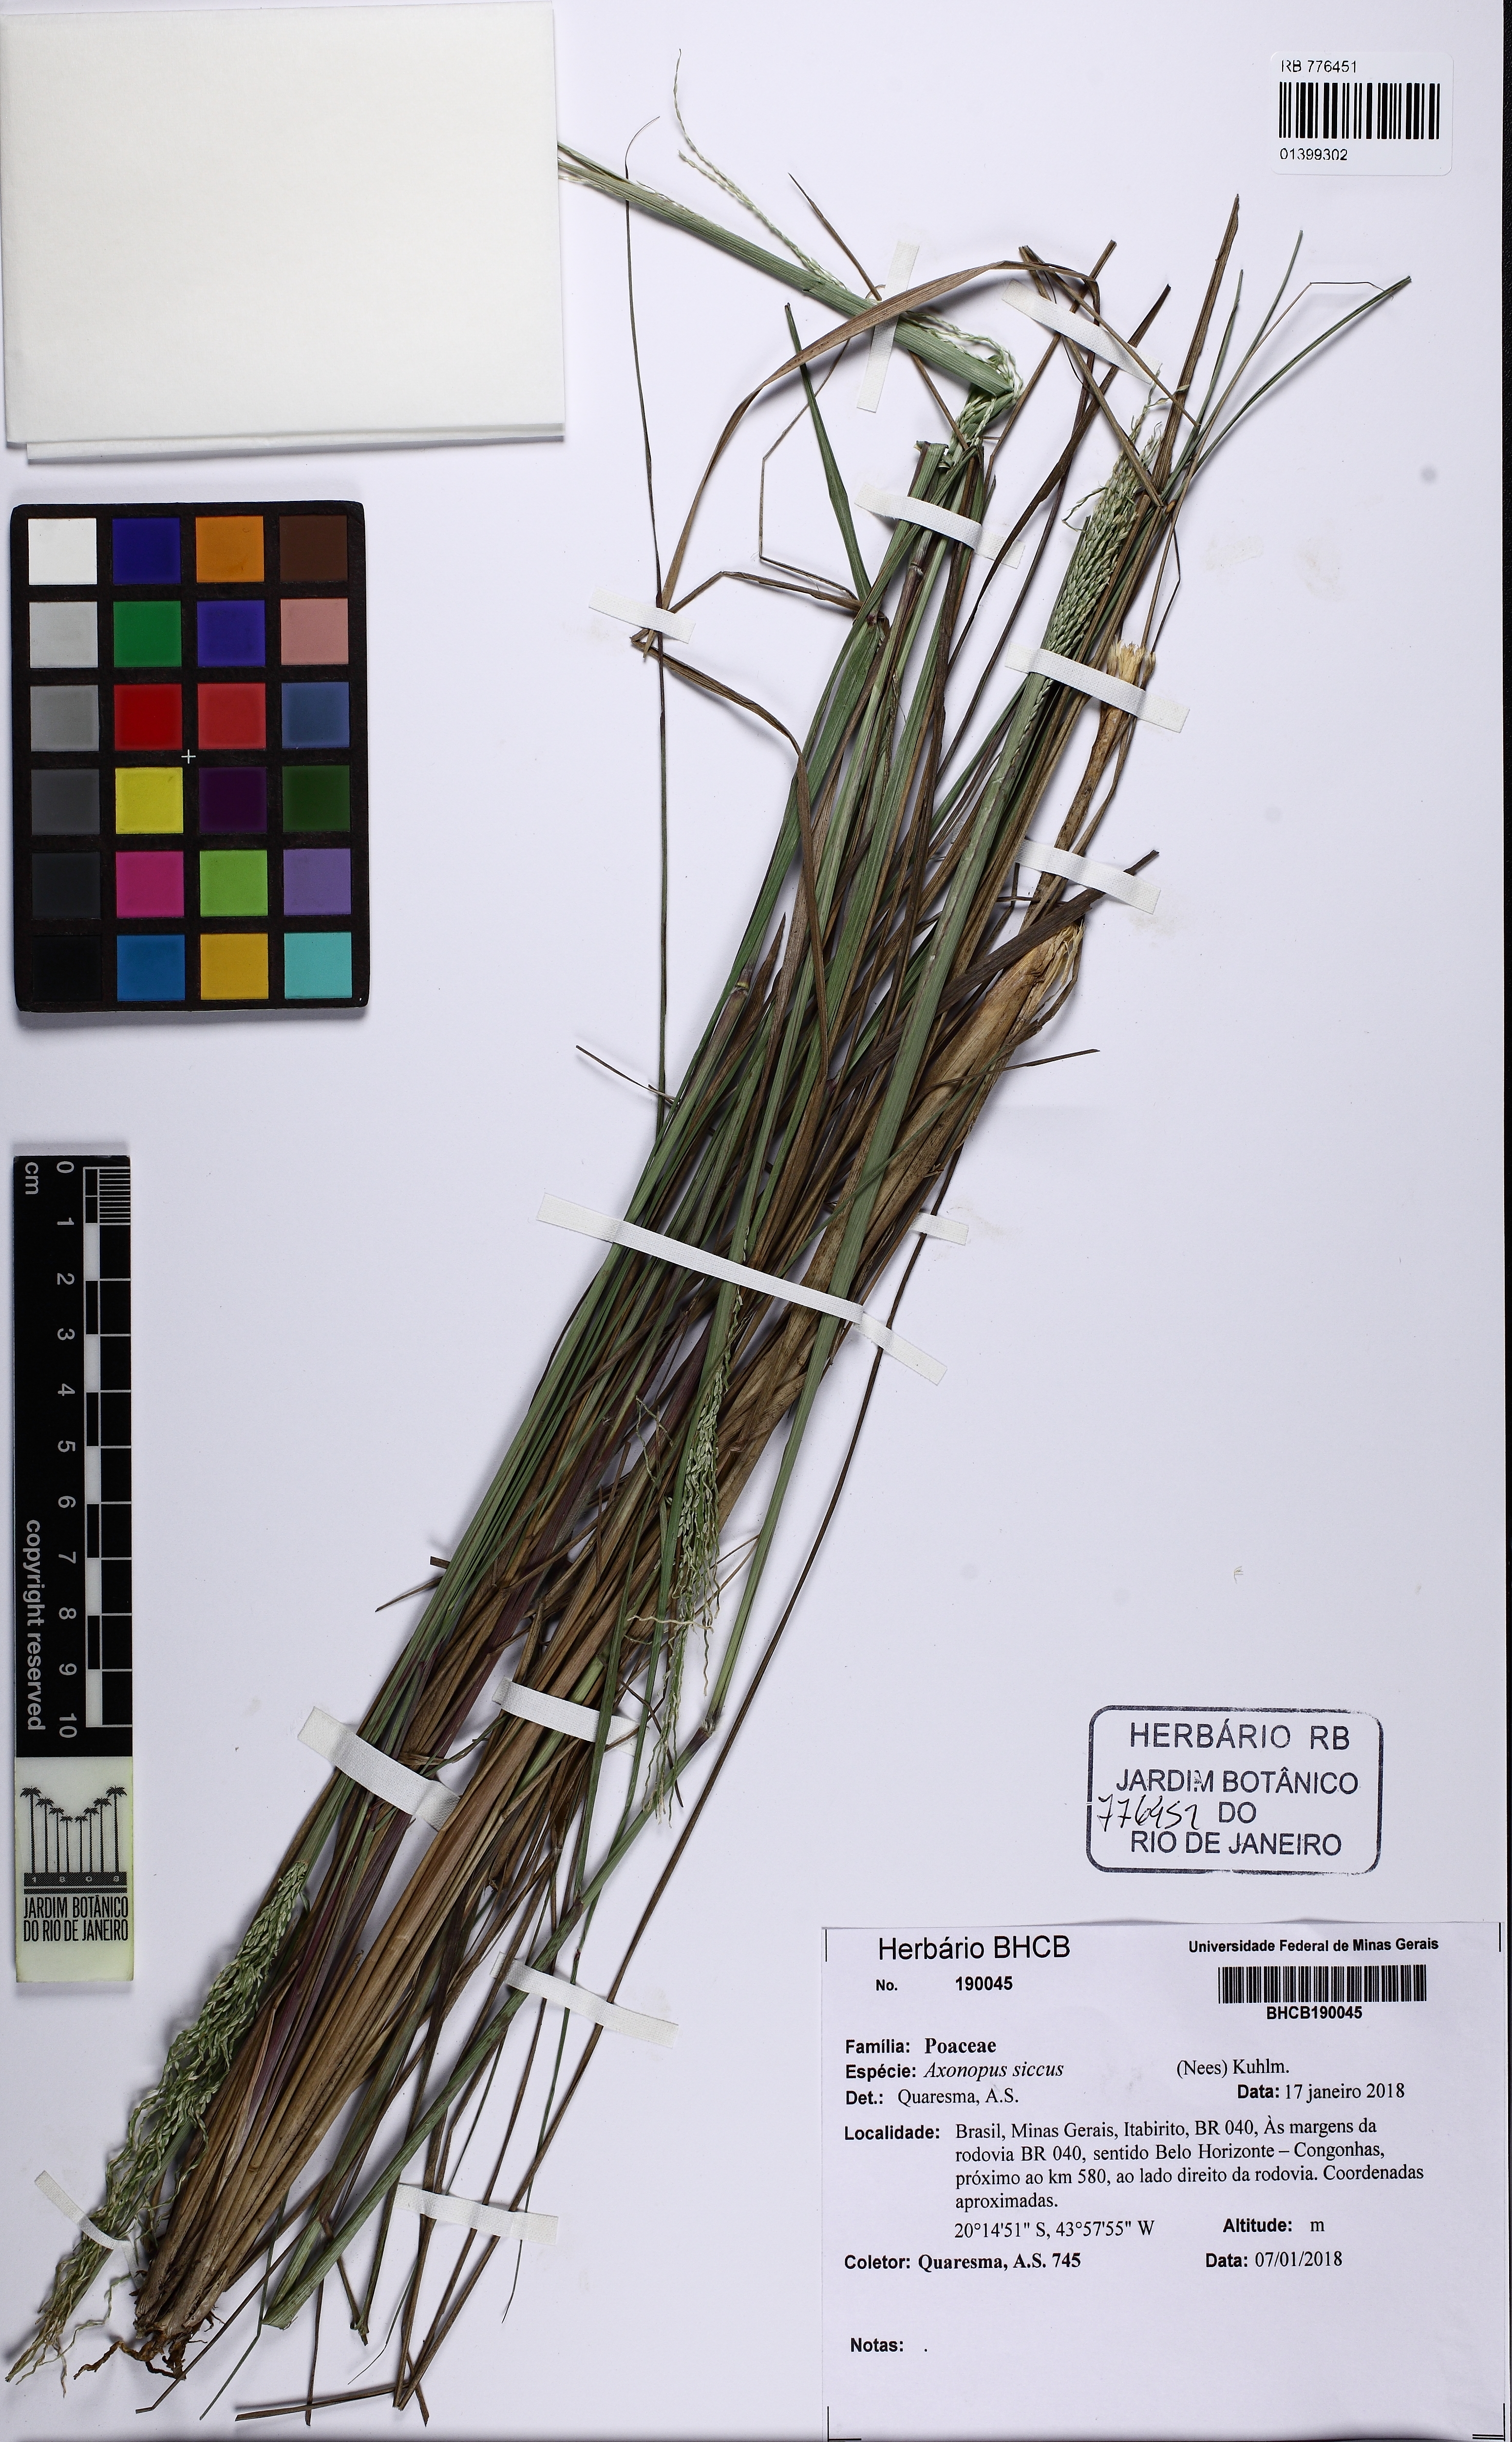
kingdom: Plantae
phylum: Tracheophyta
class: Liliopsida
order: Poales
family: Poaceae
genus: Axonopus
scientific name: Axonopus siccus
